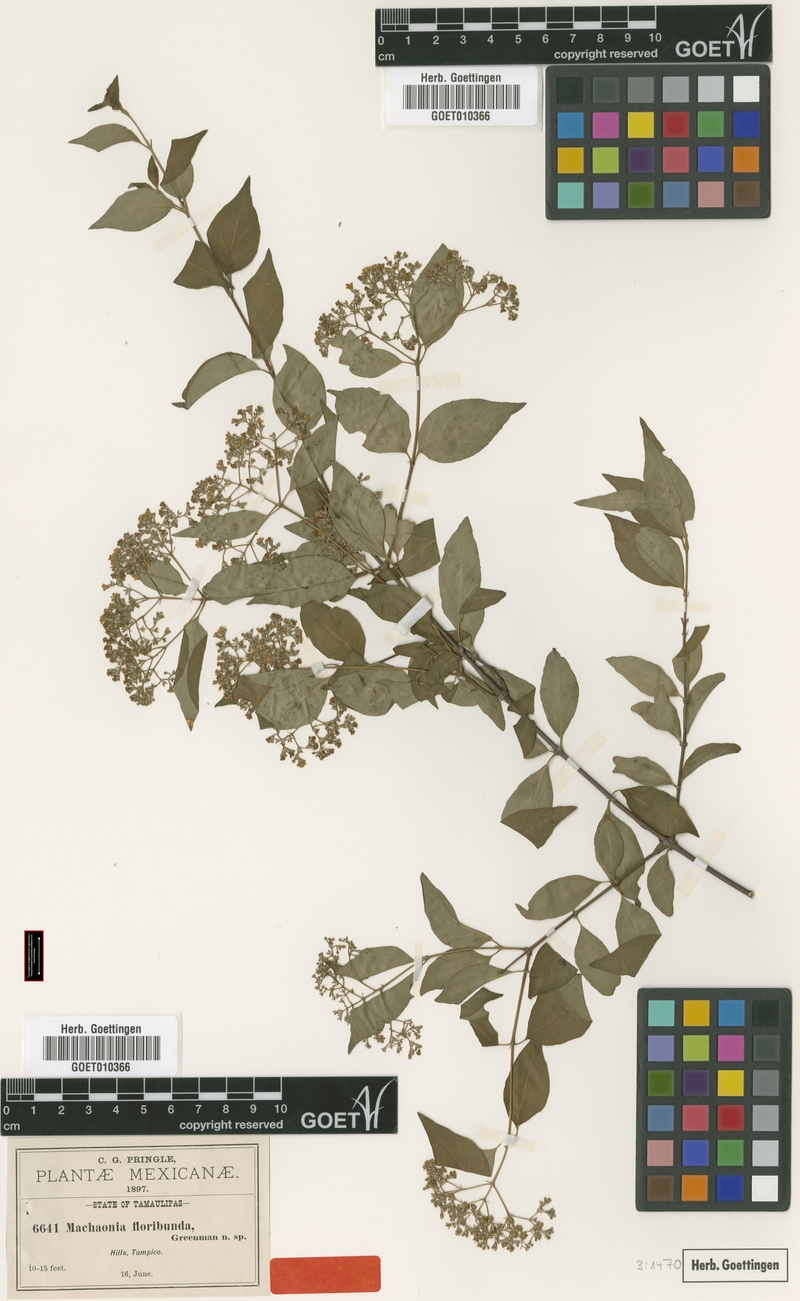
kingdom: Plantae
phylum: Tracheophyta
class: Magnoliopsida
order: Gentianales
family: Rubiaceae
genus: Machaonia
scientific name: Machaonia acuminata
